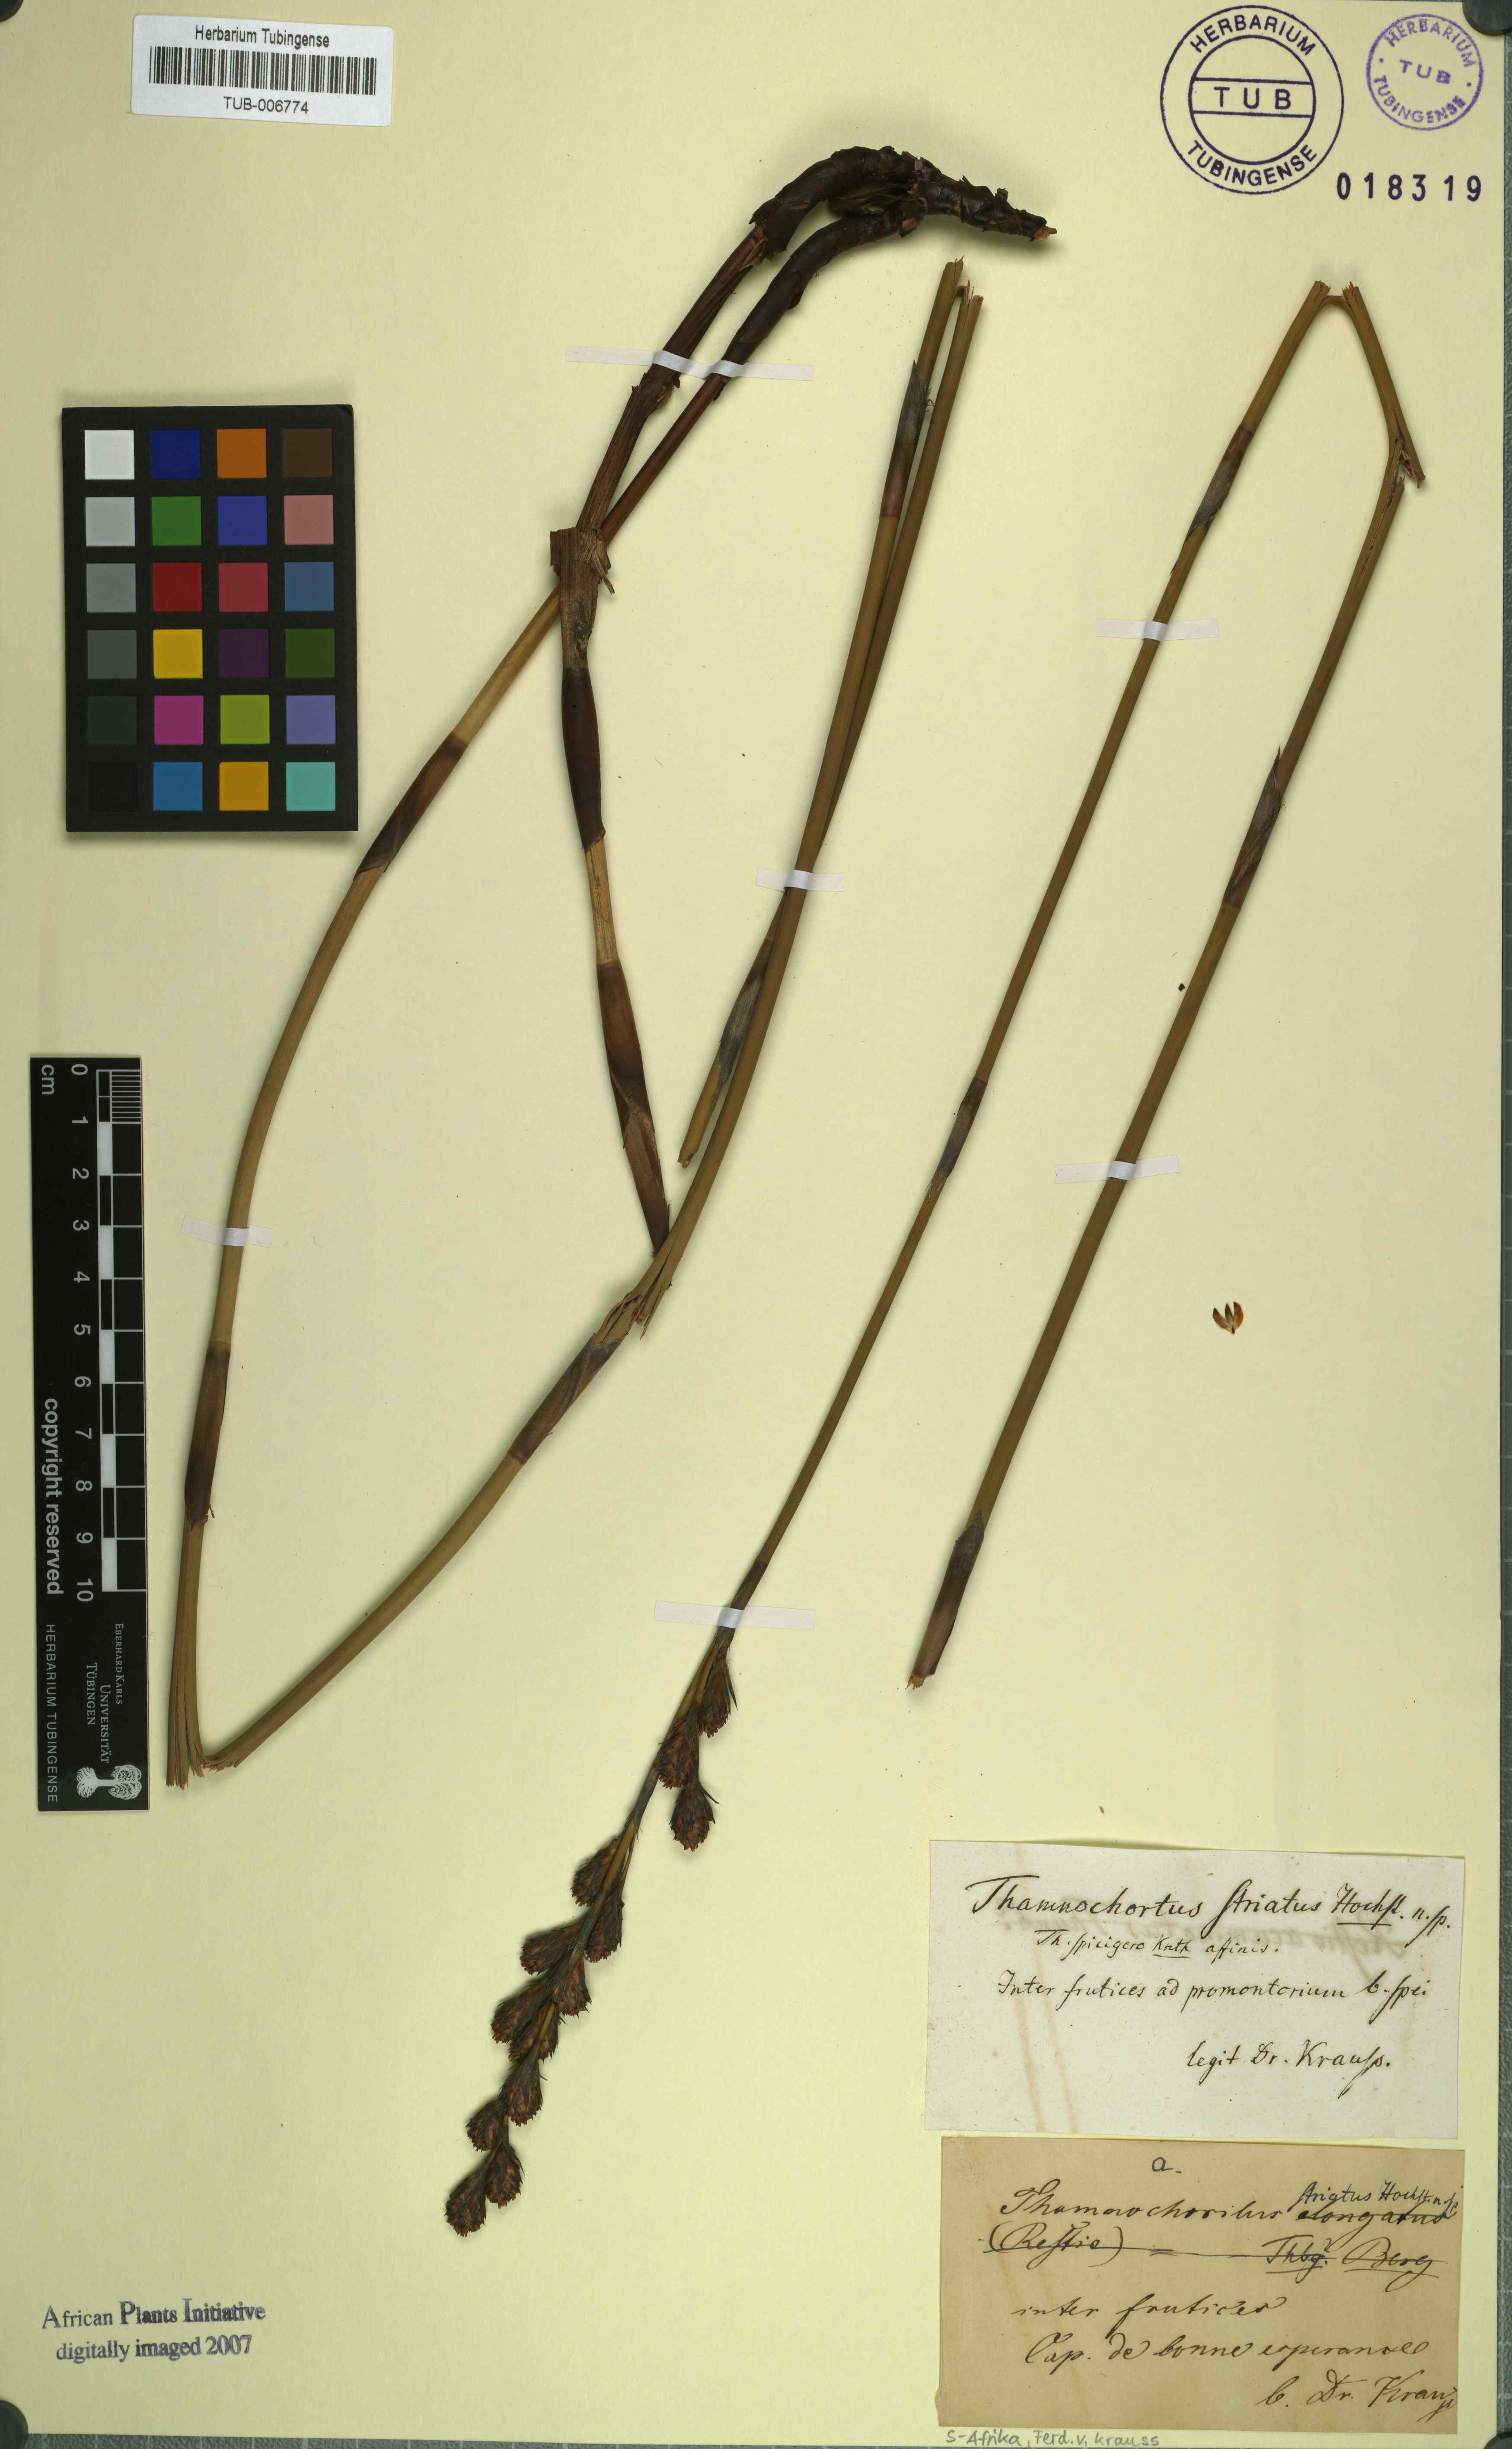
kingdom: Plantae
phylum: Tracheophyta
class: Liliopsida
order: Poales
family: Restionaceae
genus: Thamnochortus
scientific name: Thamnochortus spicigerus
